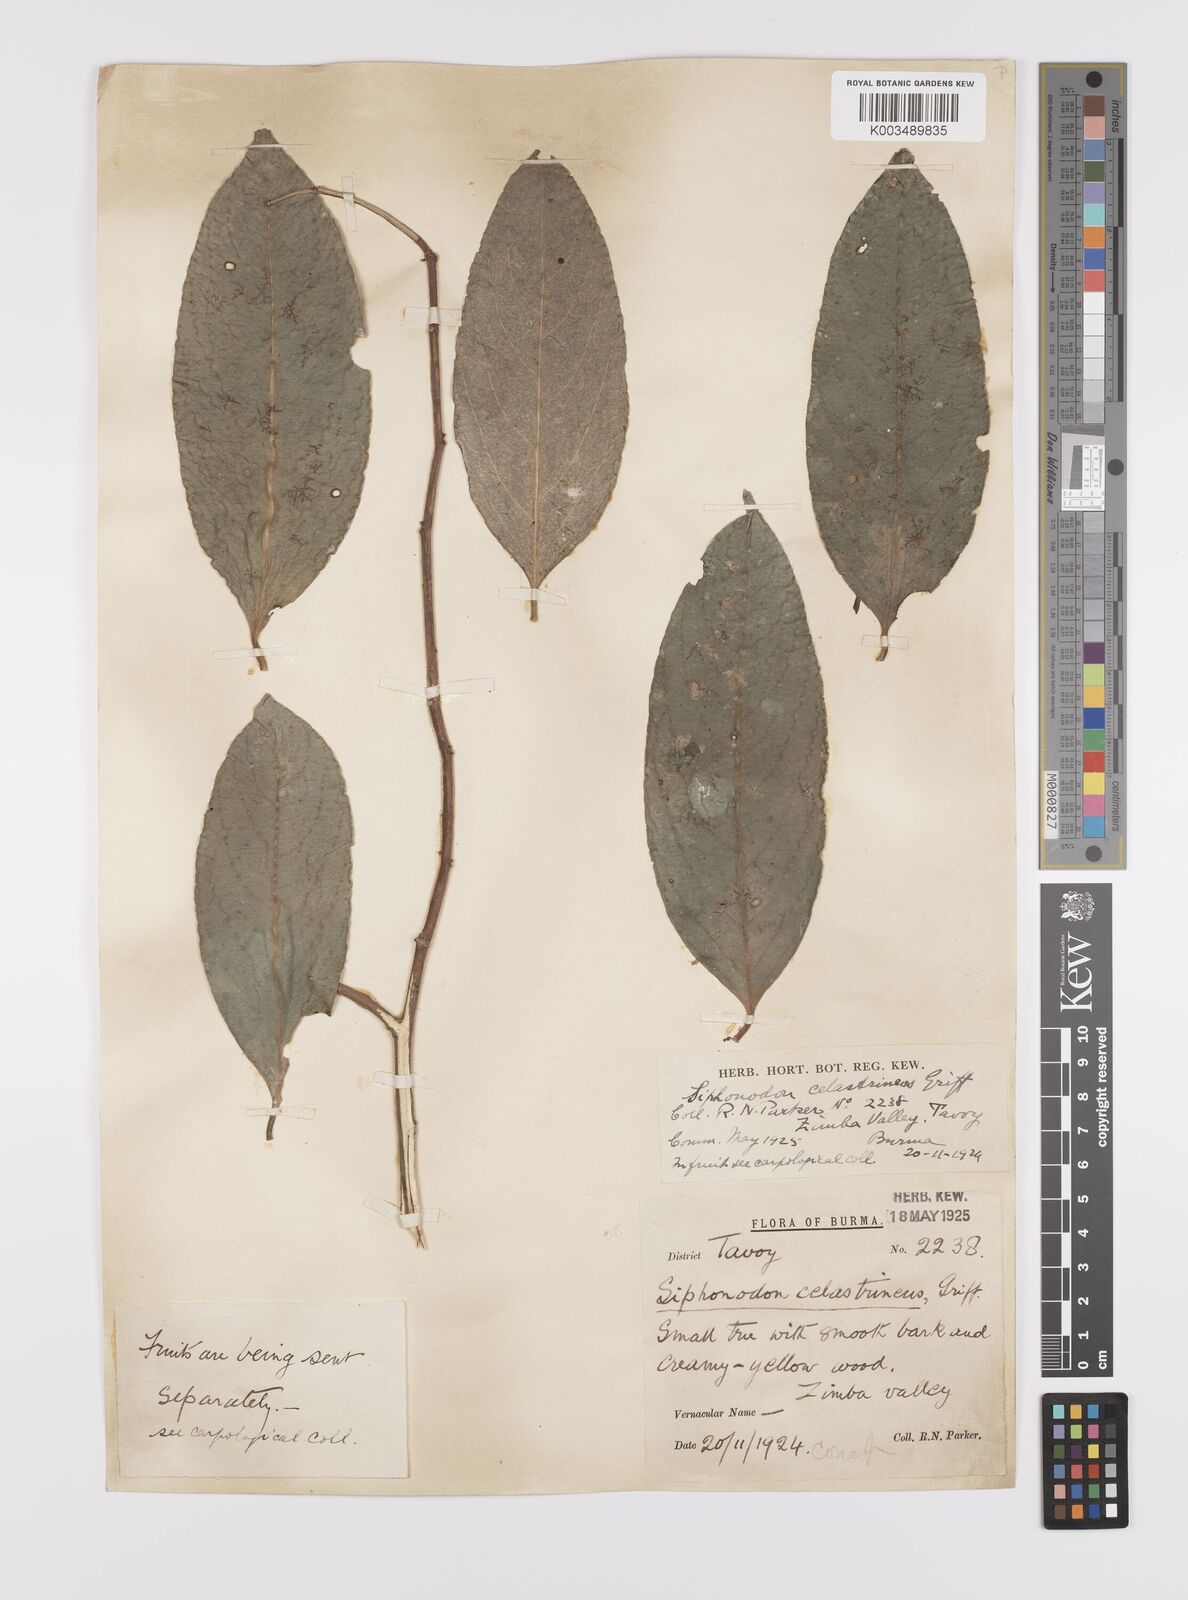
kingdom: Plantae
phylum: Tracheophyta
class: Magnoliopsida
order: Celastrales
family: Celastraceae
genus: Siphonodon
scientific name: Siphonodon celastrineus
